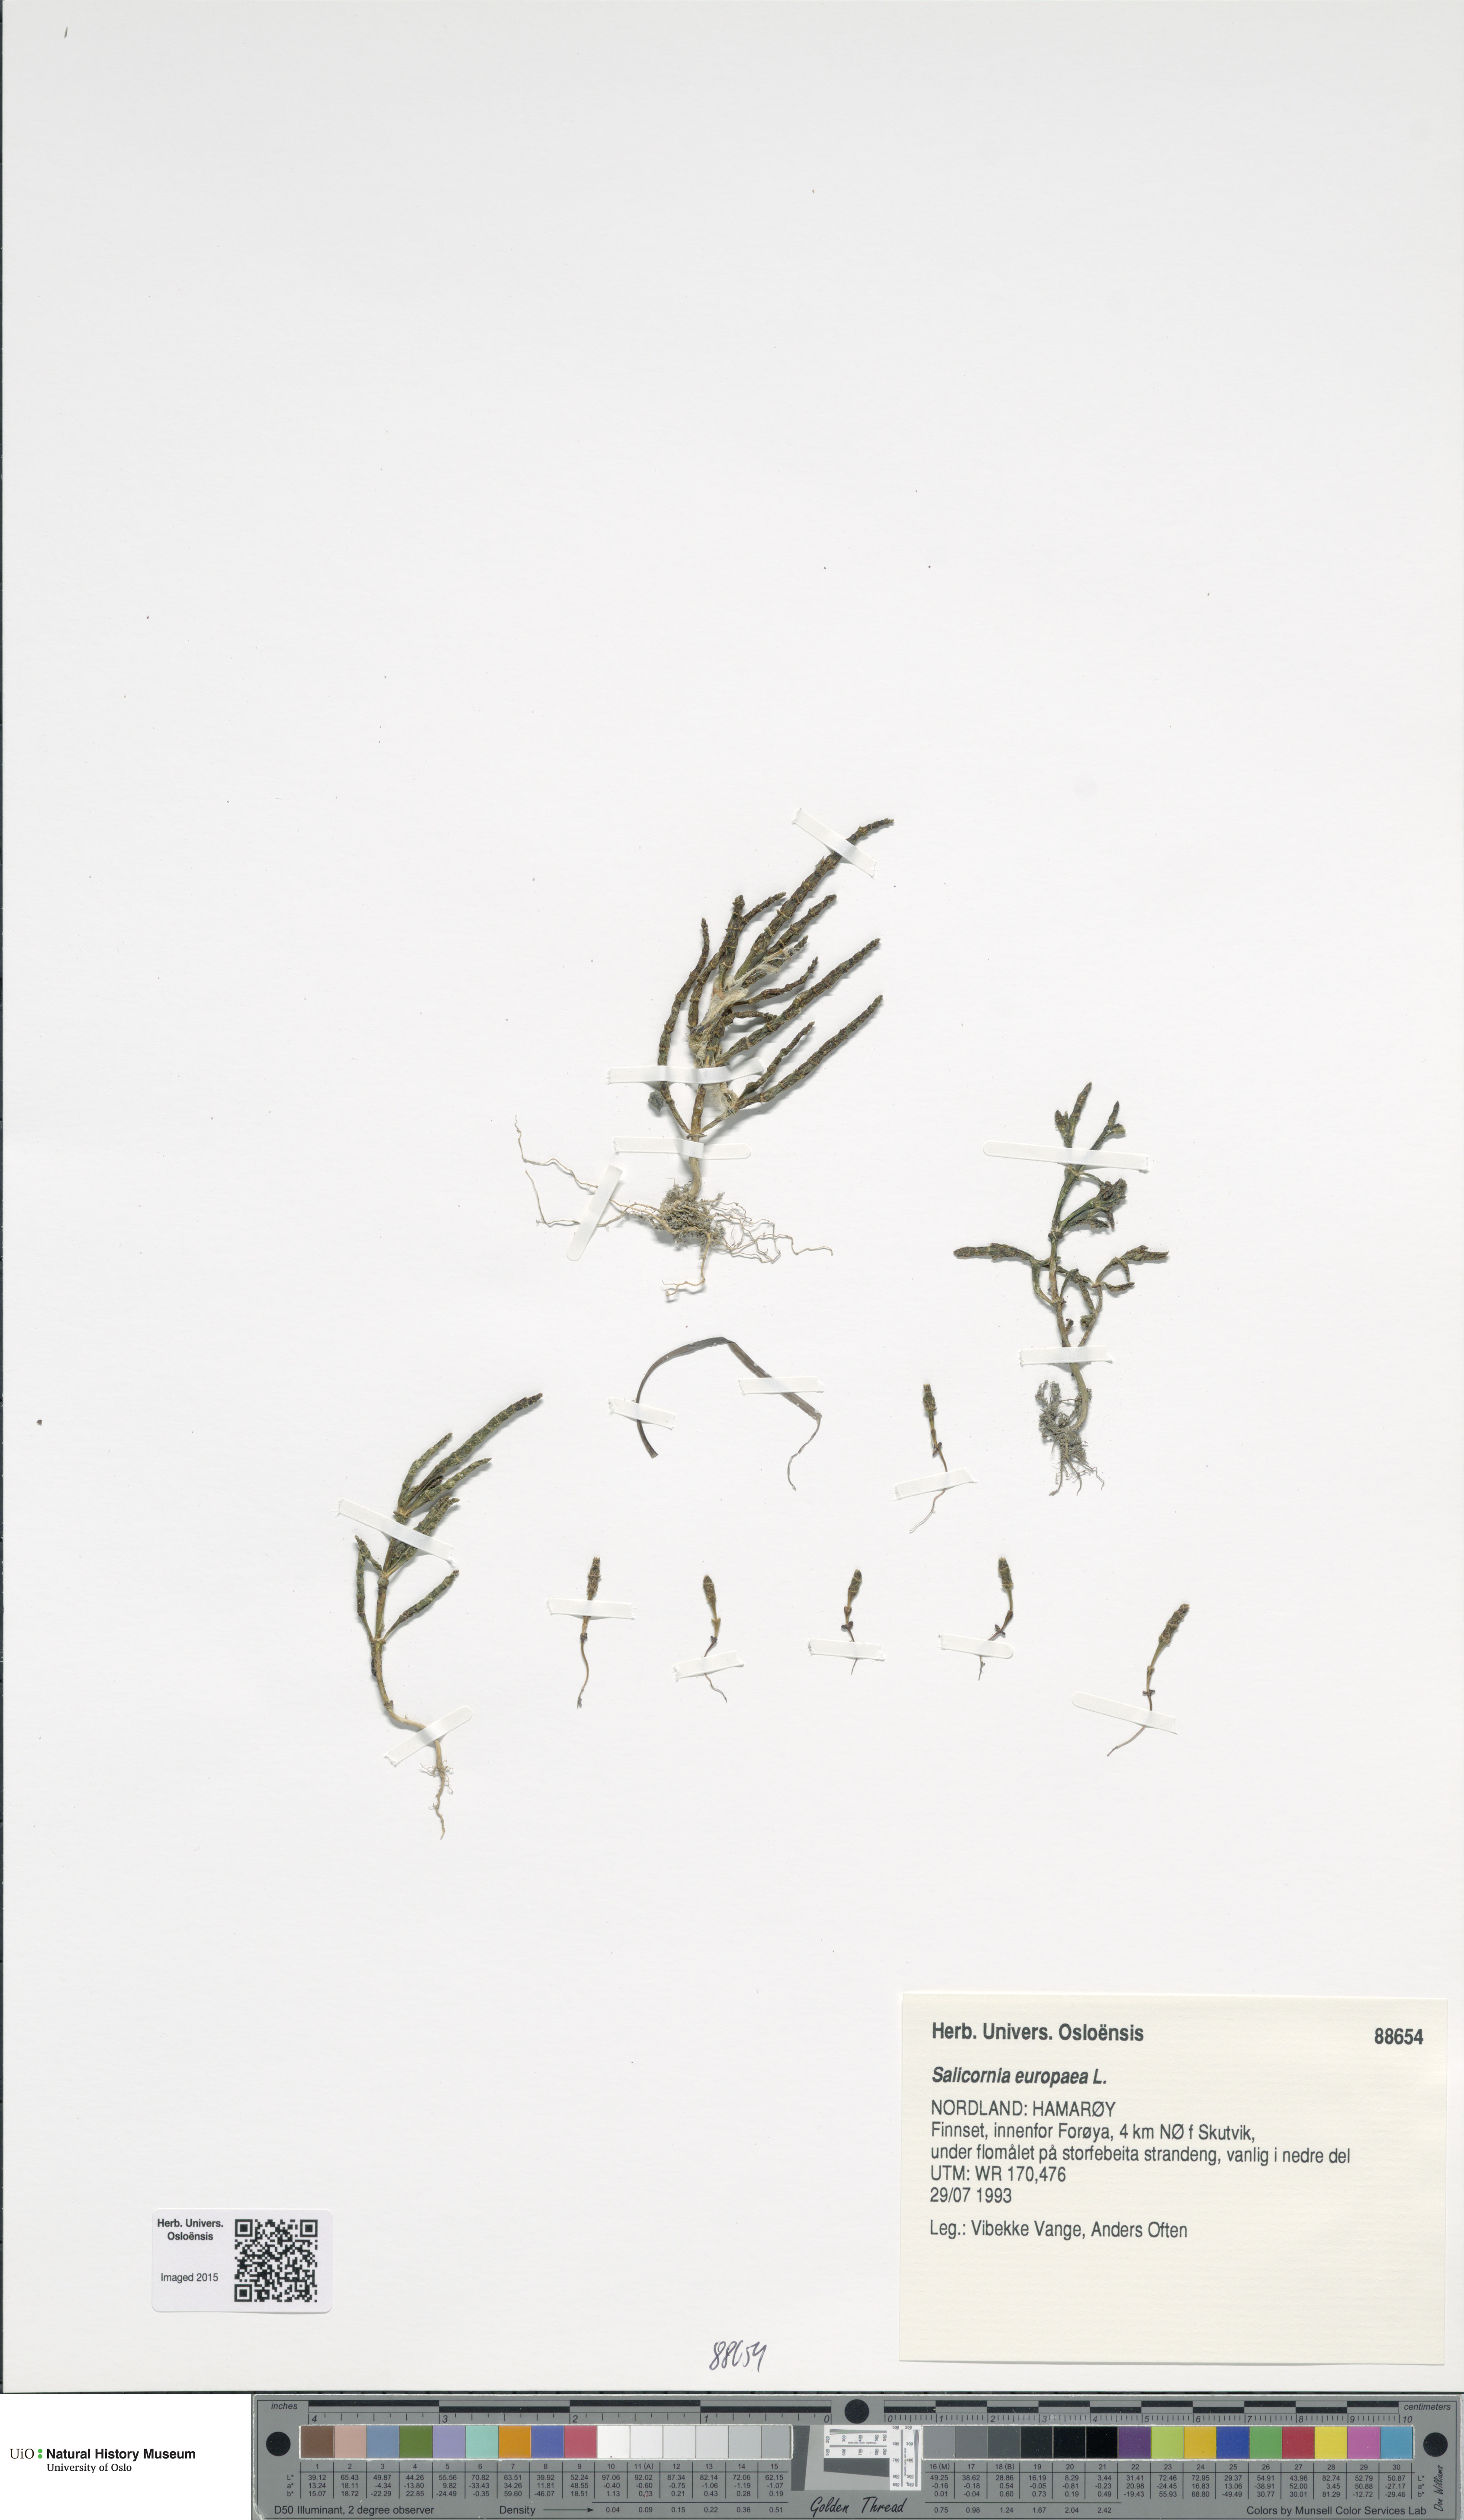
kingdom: Plantae
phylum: Tracheophyta
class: Magnoliopsida
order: Caryophyllales
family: Amaranthaceae
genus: Salicornia
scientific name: Salicornia europaea
